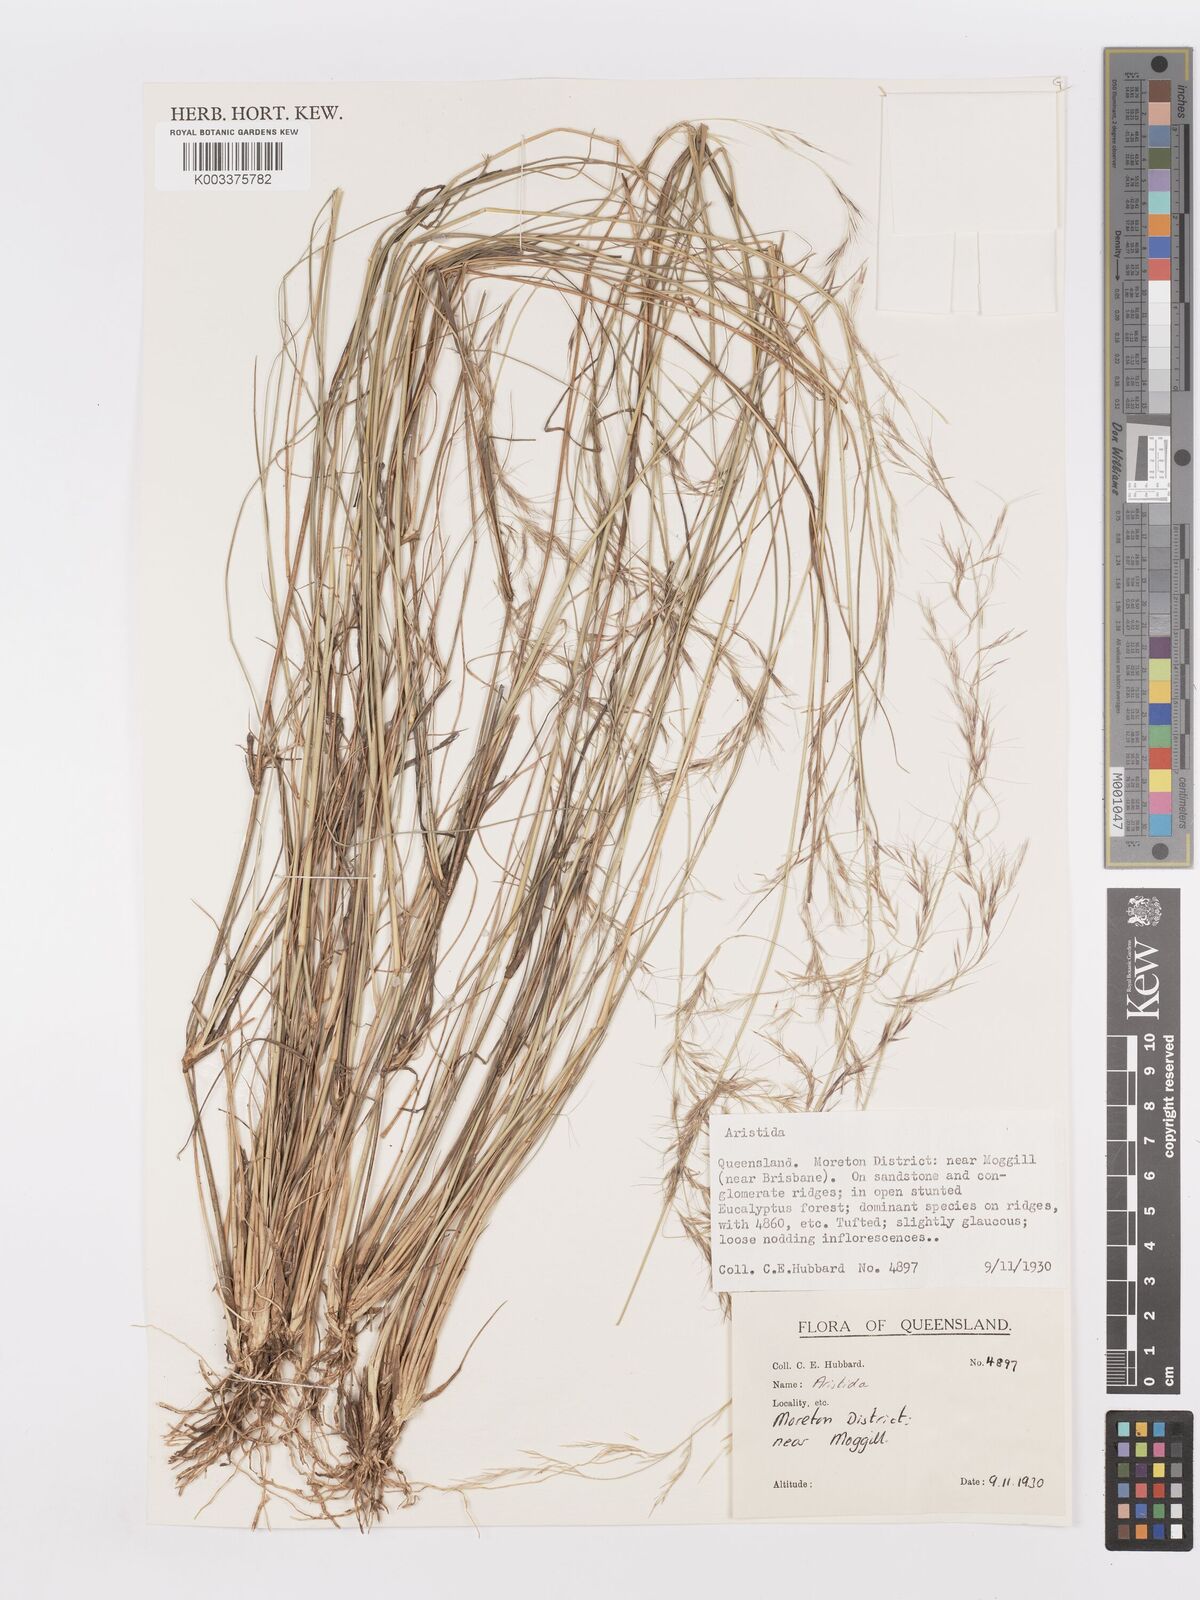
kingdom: Plantae
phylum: Tracheophyta
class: Liliopsida
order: Poales
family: Poaceae
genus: Aristida
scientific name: Aristida
